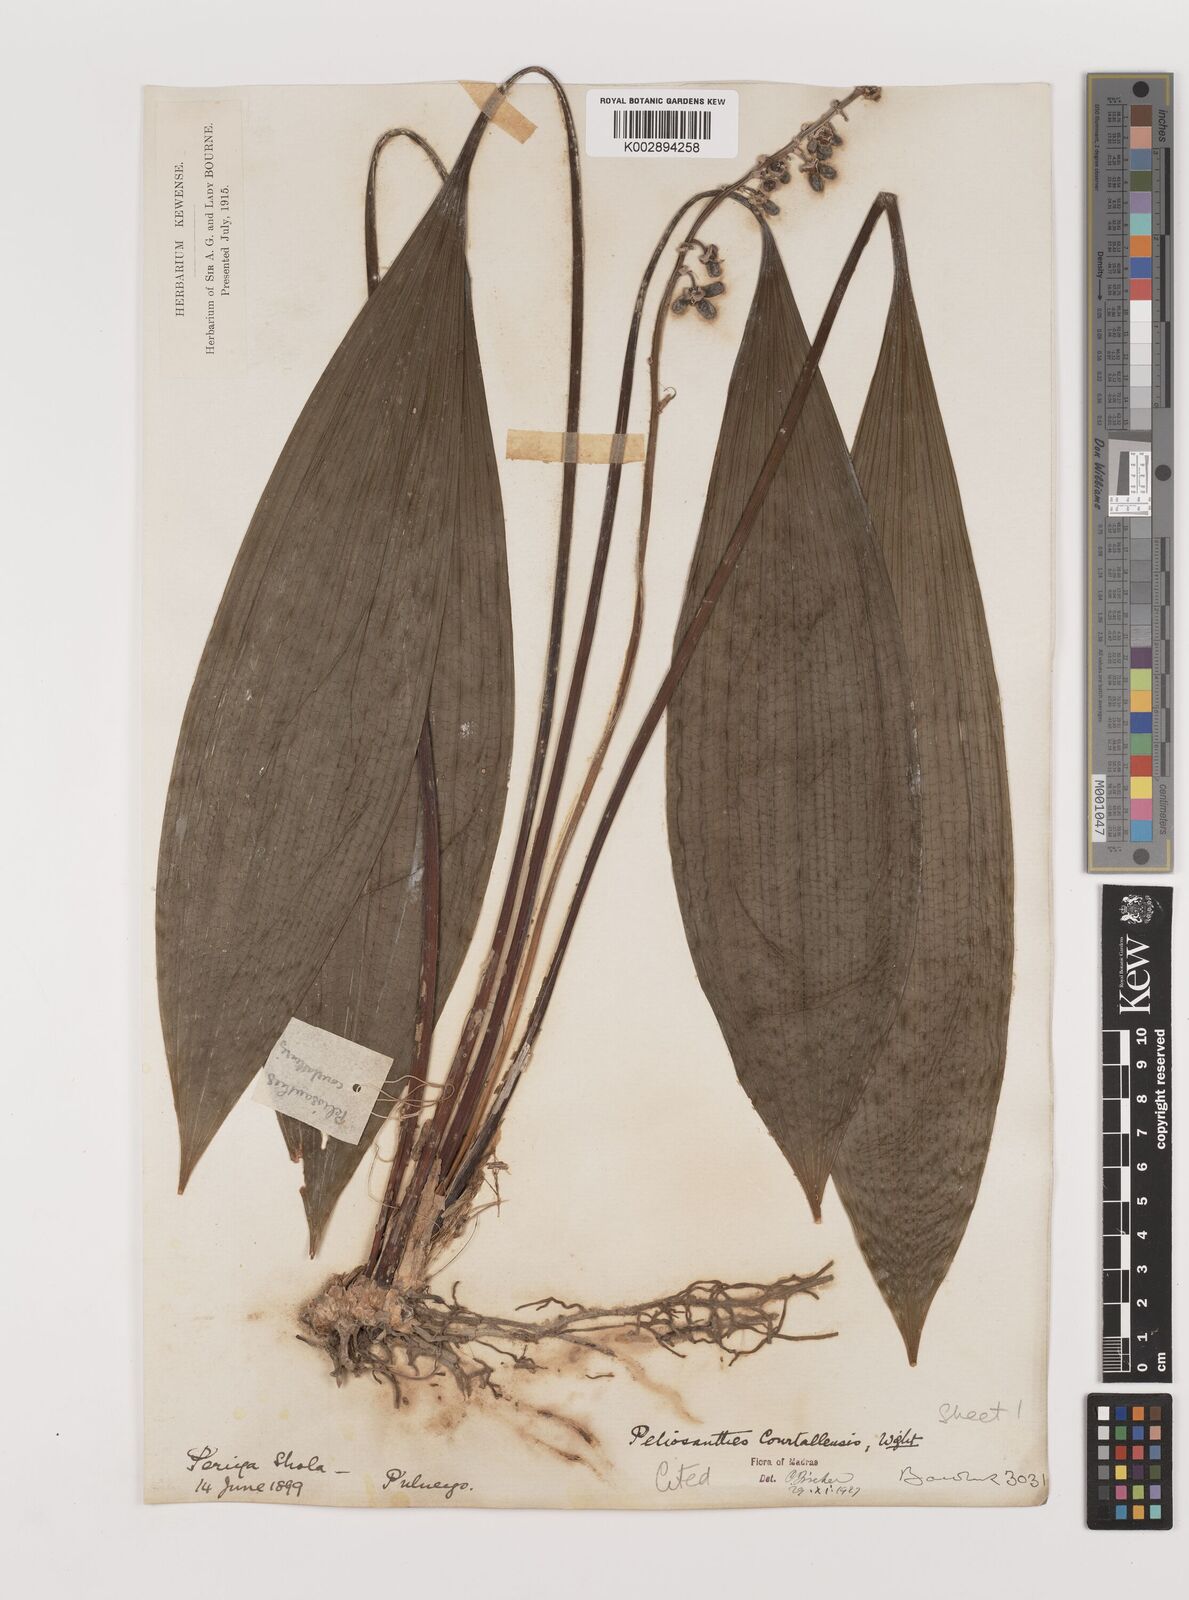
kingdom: Plantae
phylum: Tracheophyta
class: Liliopsida
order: Asparagales
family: Asparagaceae
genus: Peliosanthes
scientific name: Peliosanthes teta
